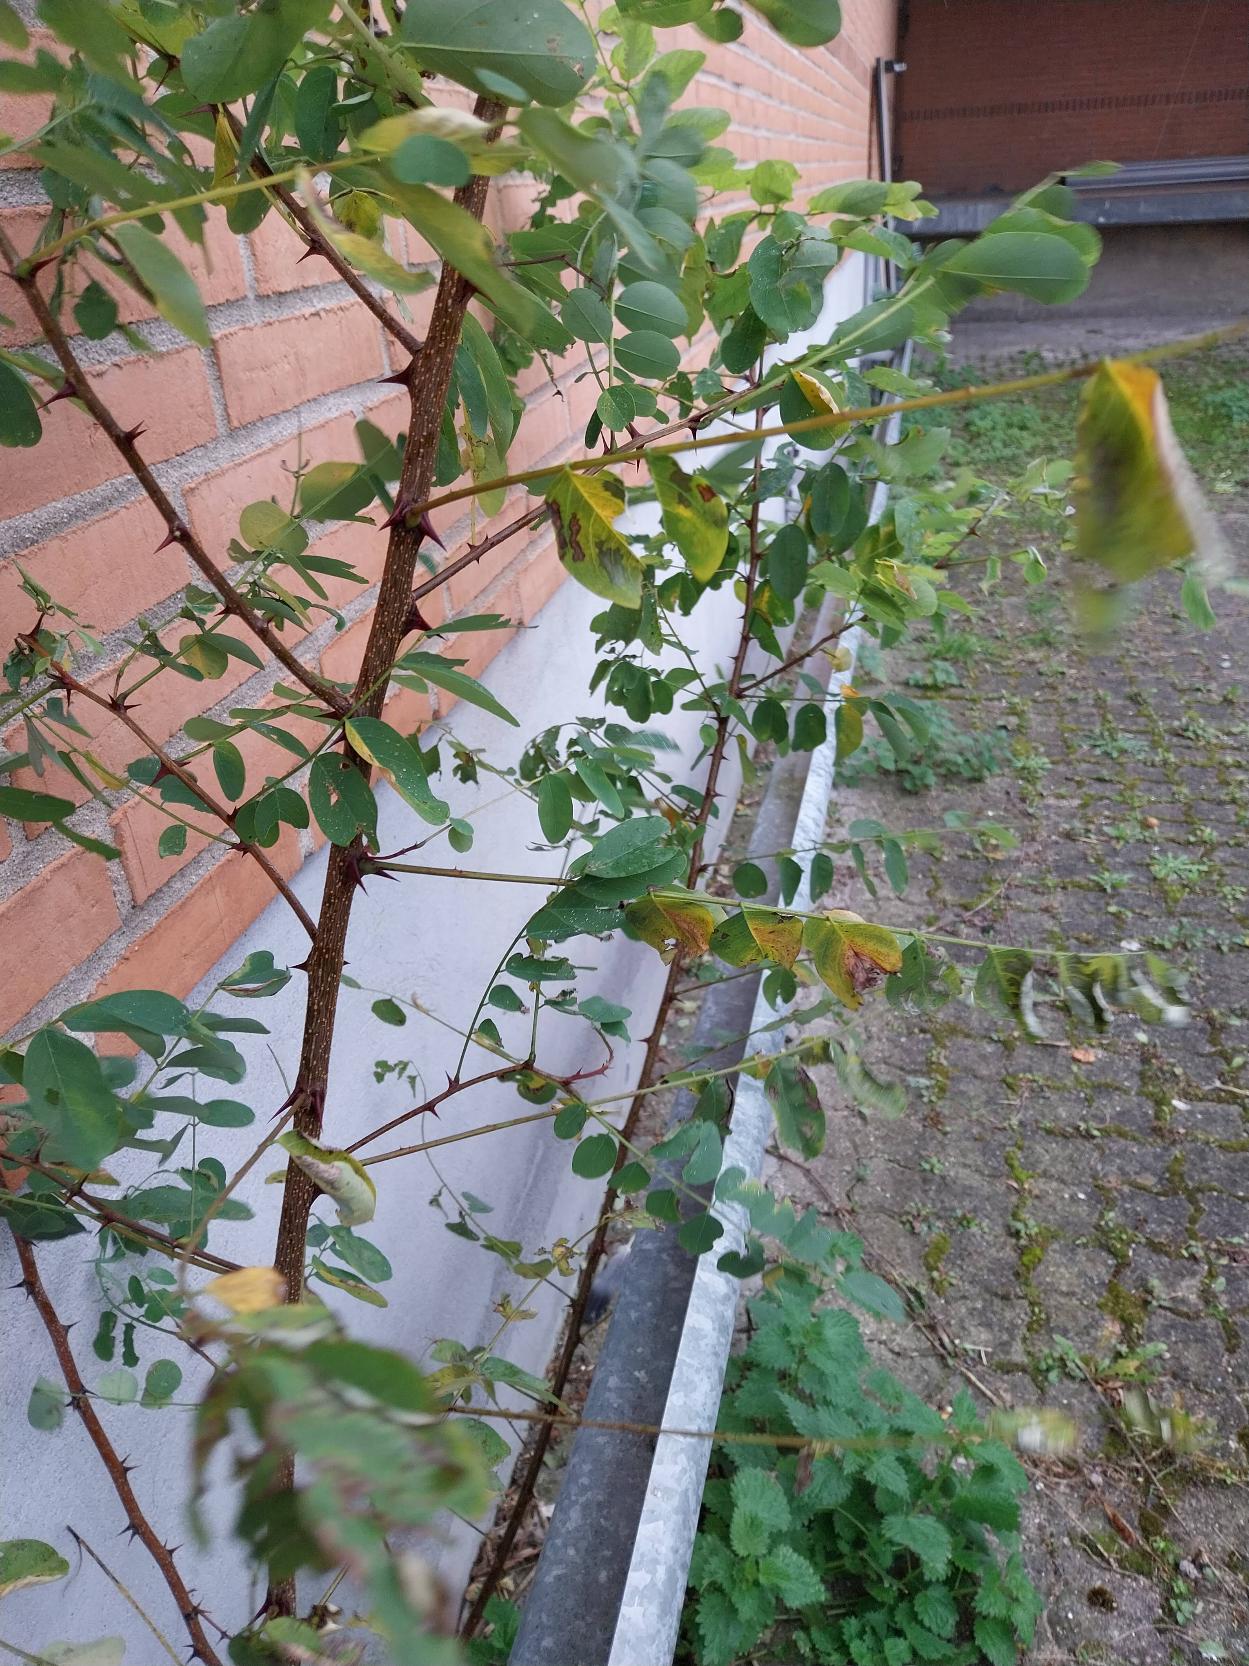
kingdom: Plantae
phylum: Tracheophyta
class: Magnoliopsida
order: Fabales
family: Fabaceae
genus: Robinia
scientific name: Robinia pseudoacacia
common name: Robinie
